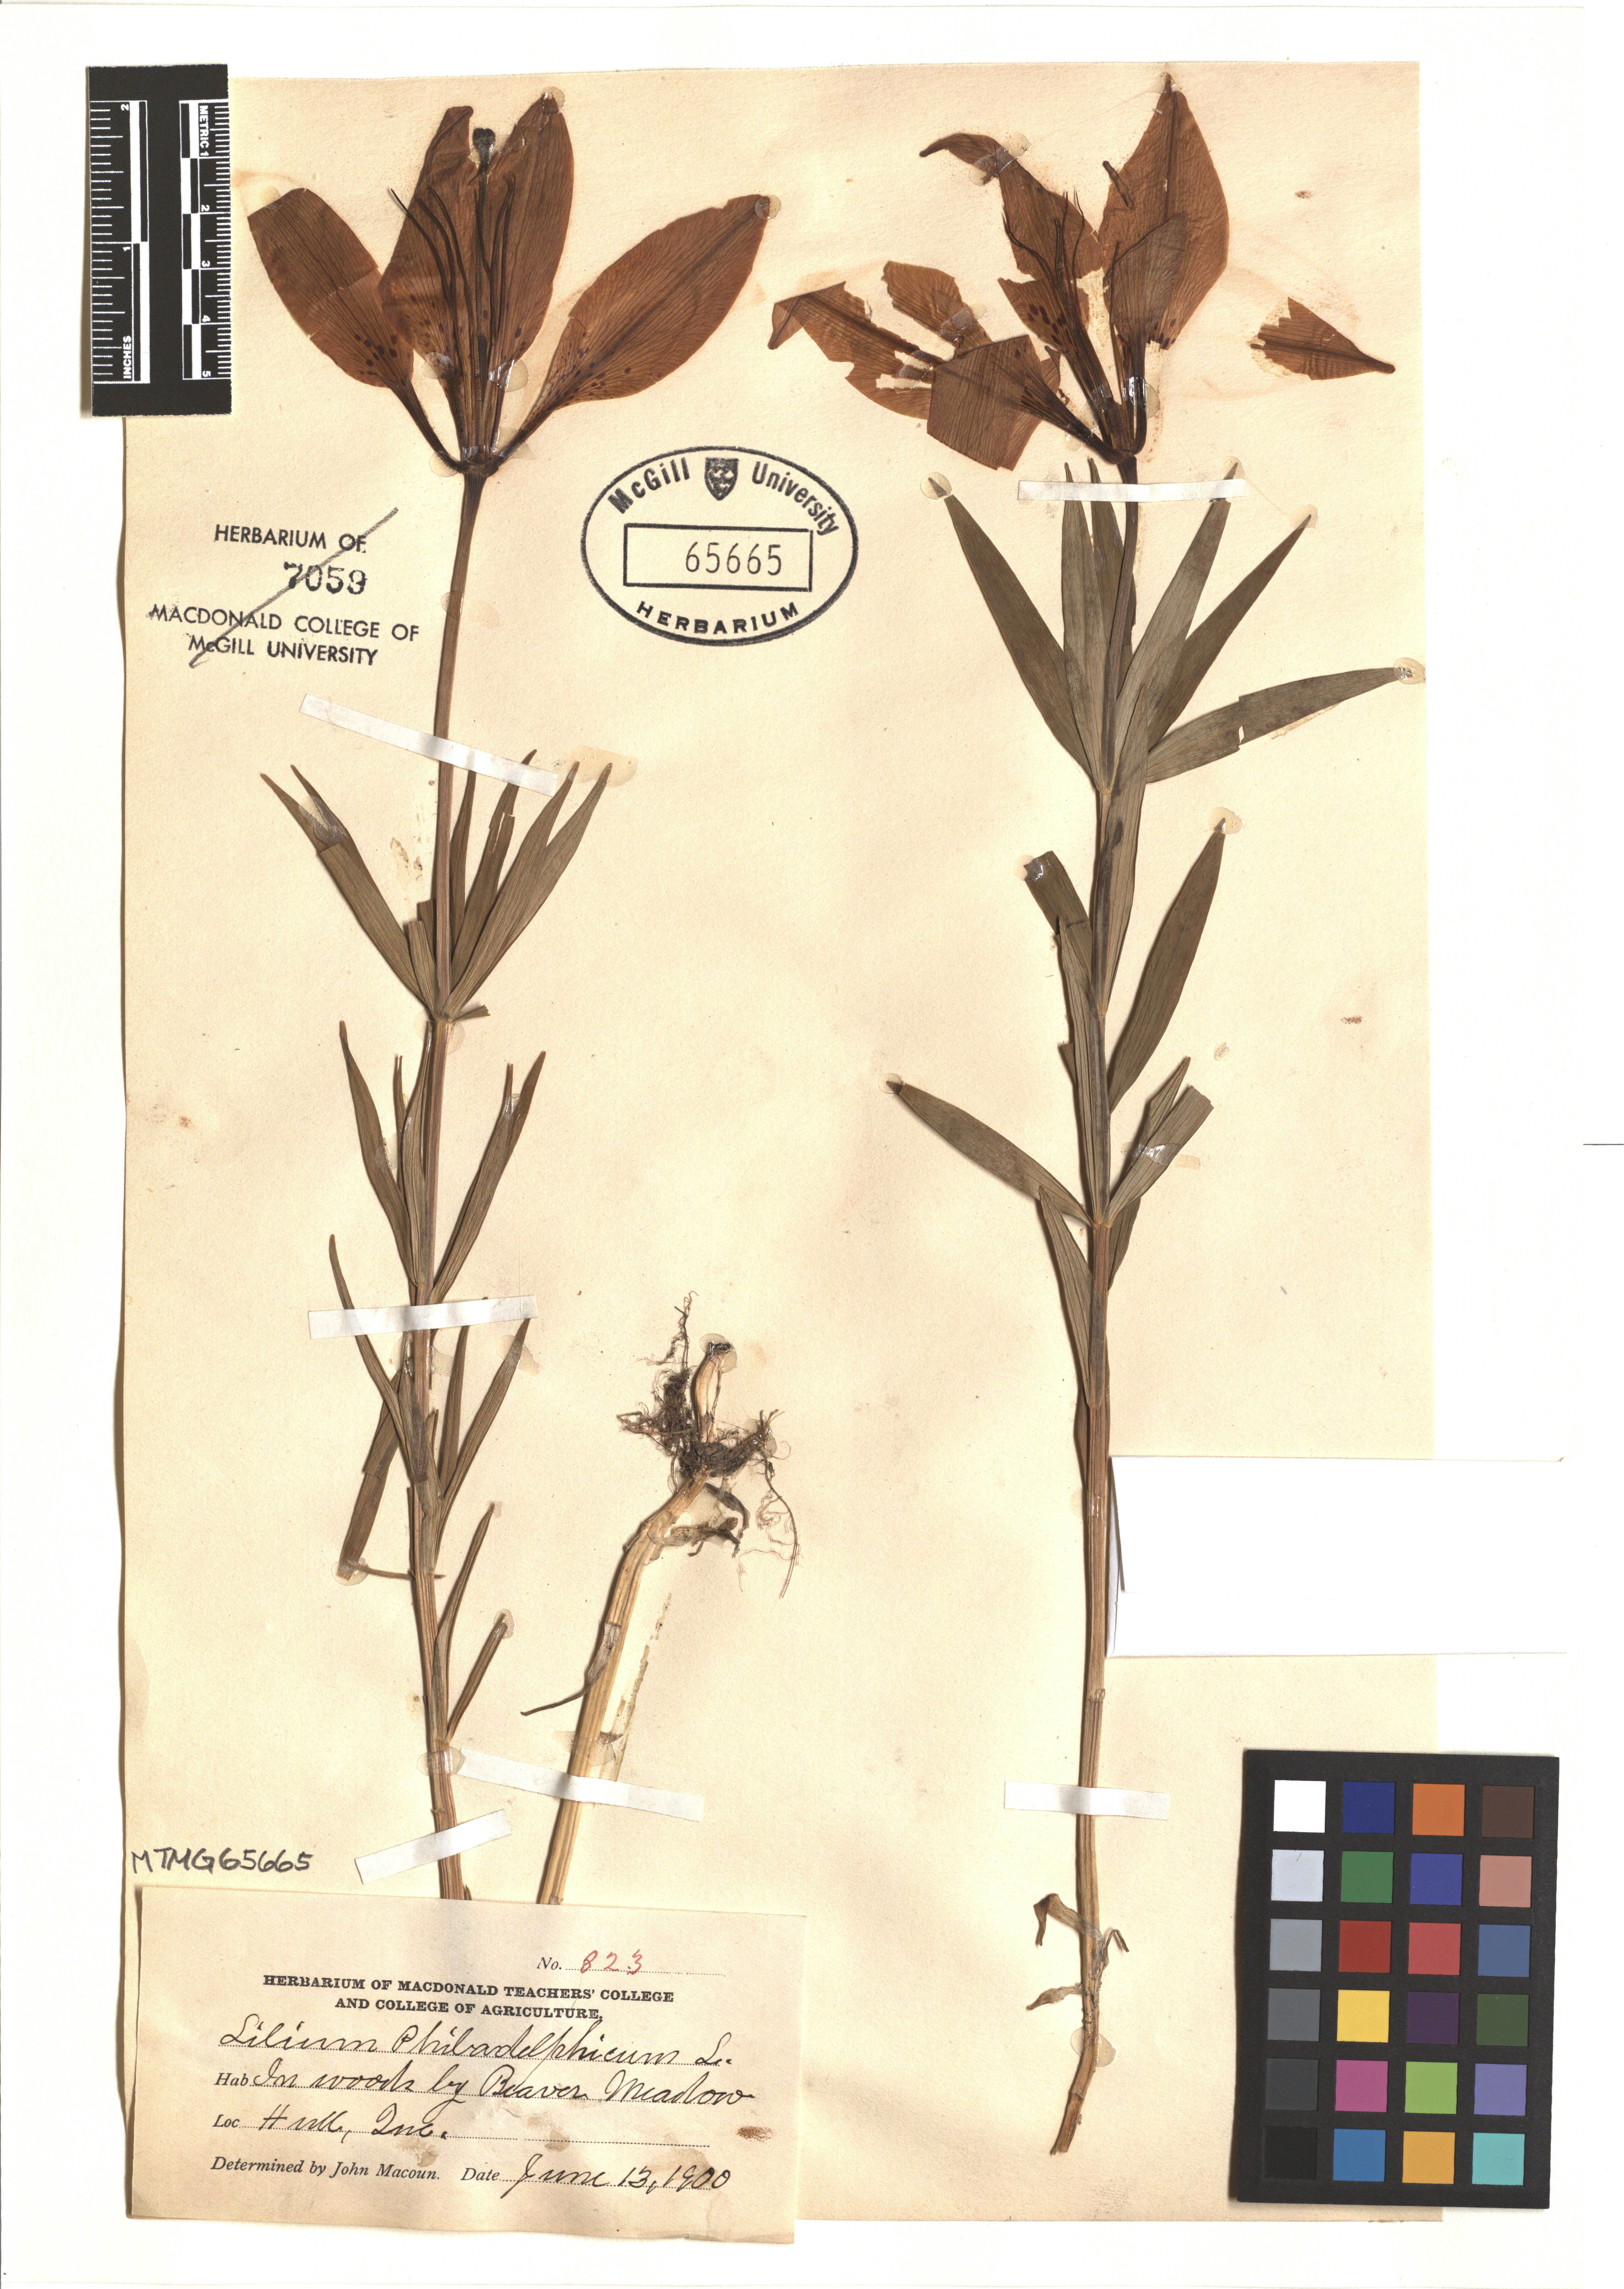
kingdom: Plantae
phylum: Tracheophyta
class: Liliopsida
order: Liliales
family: Liliaceae
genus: Lilium
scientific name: Lilium philadelphicum
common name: Red lily
